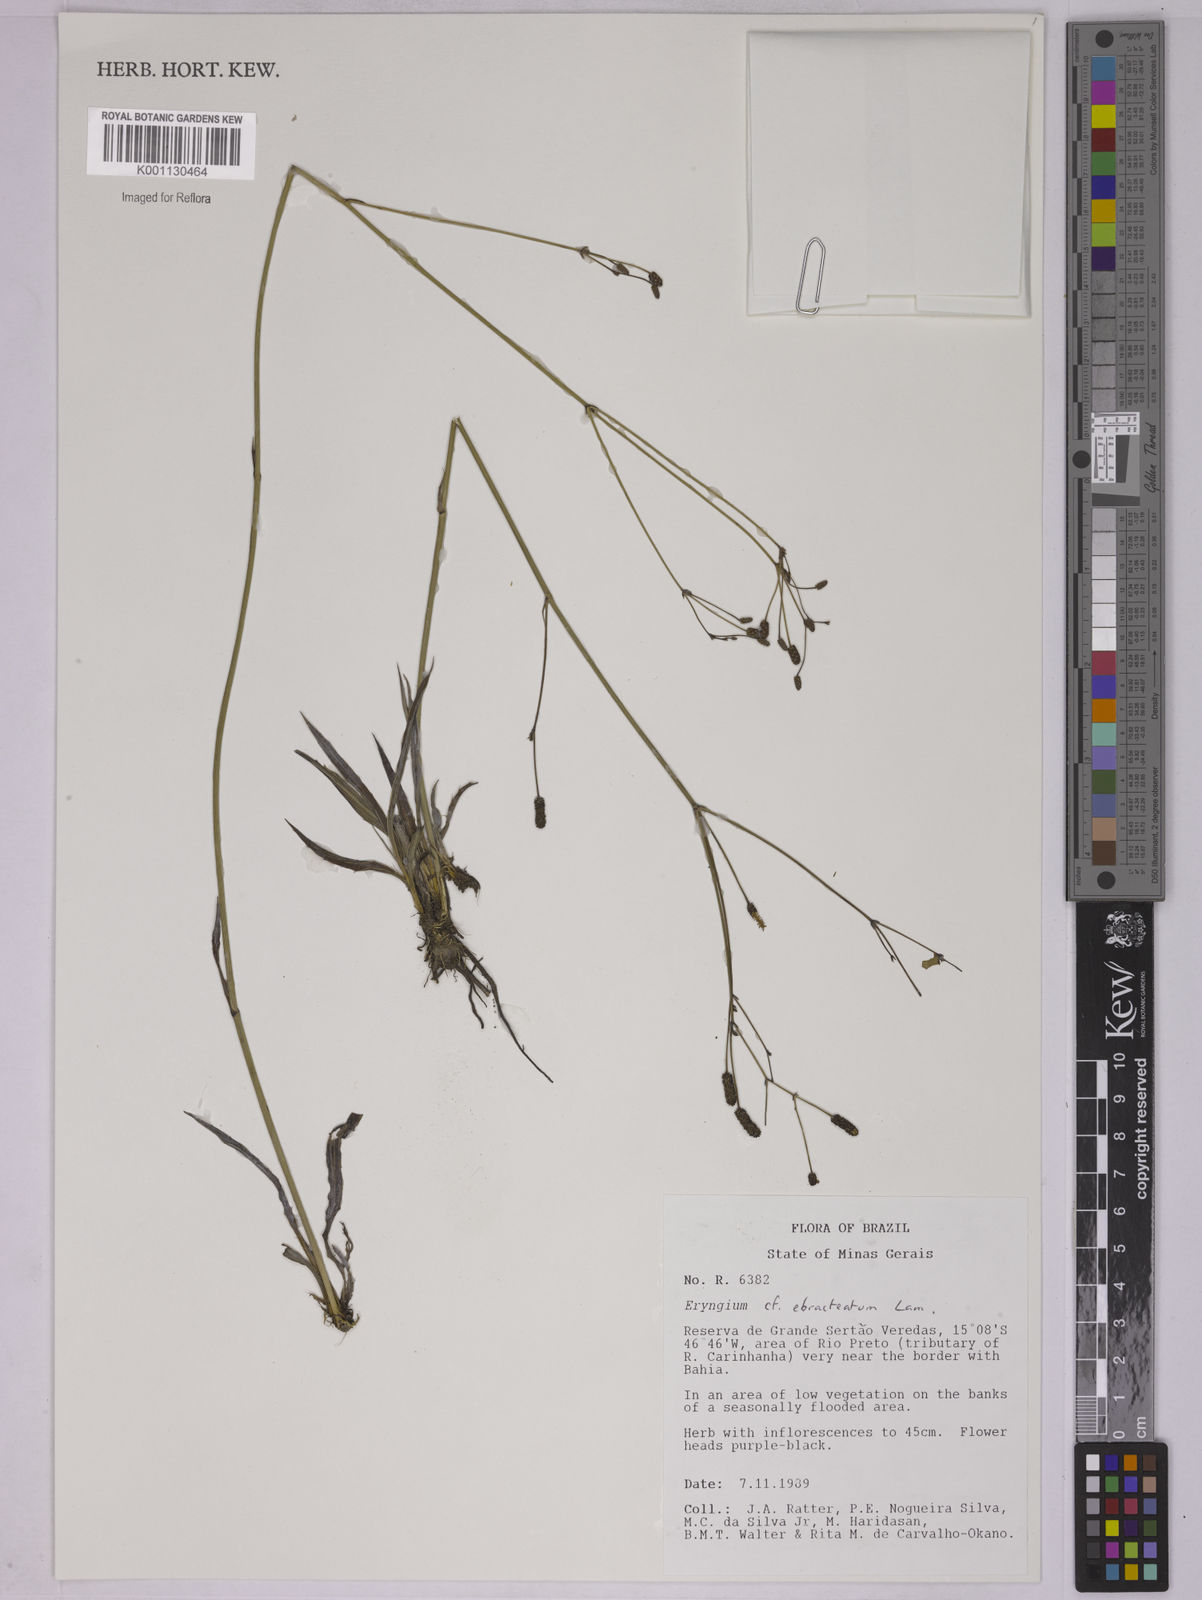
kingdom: Plantae
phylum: Tracheophyta
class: Magnoliopsida
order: Apiales
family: Apiaceae
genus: Eryngium
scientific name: Eryngium ebracteatum
